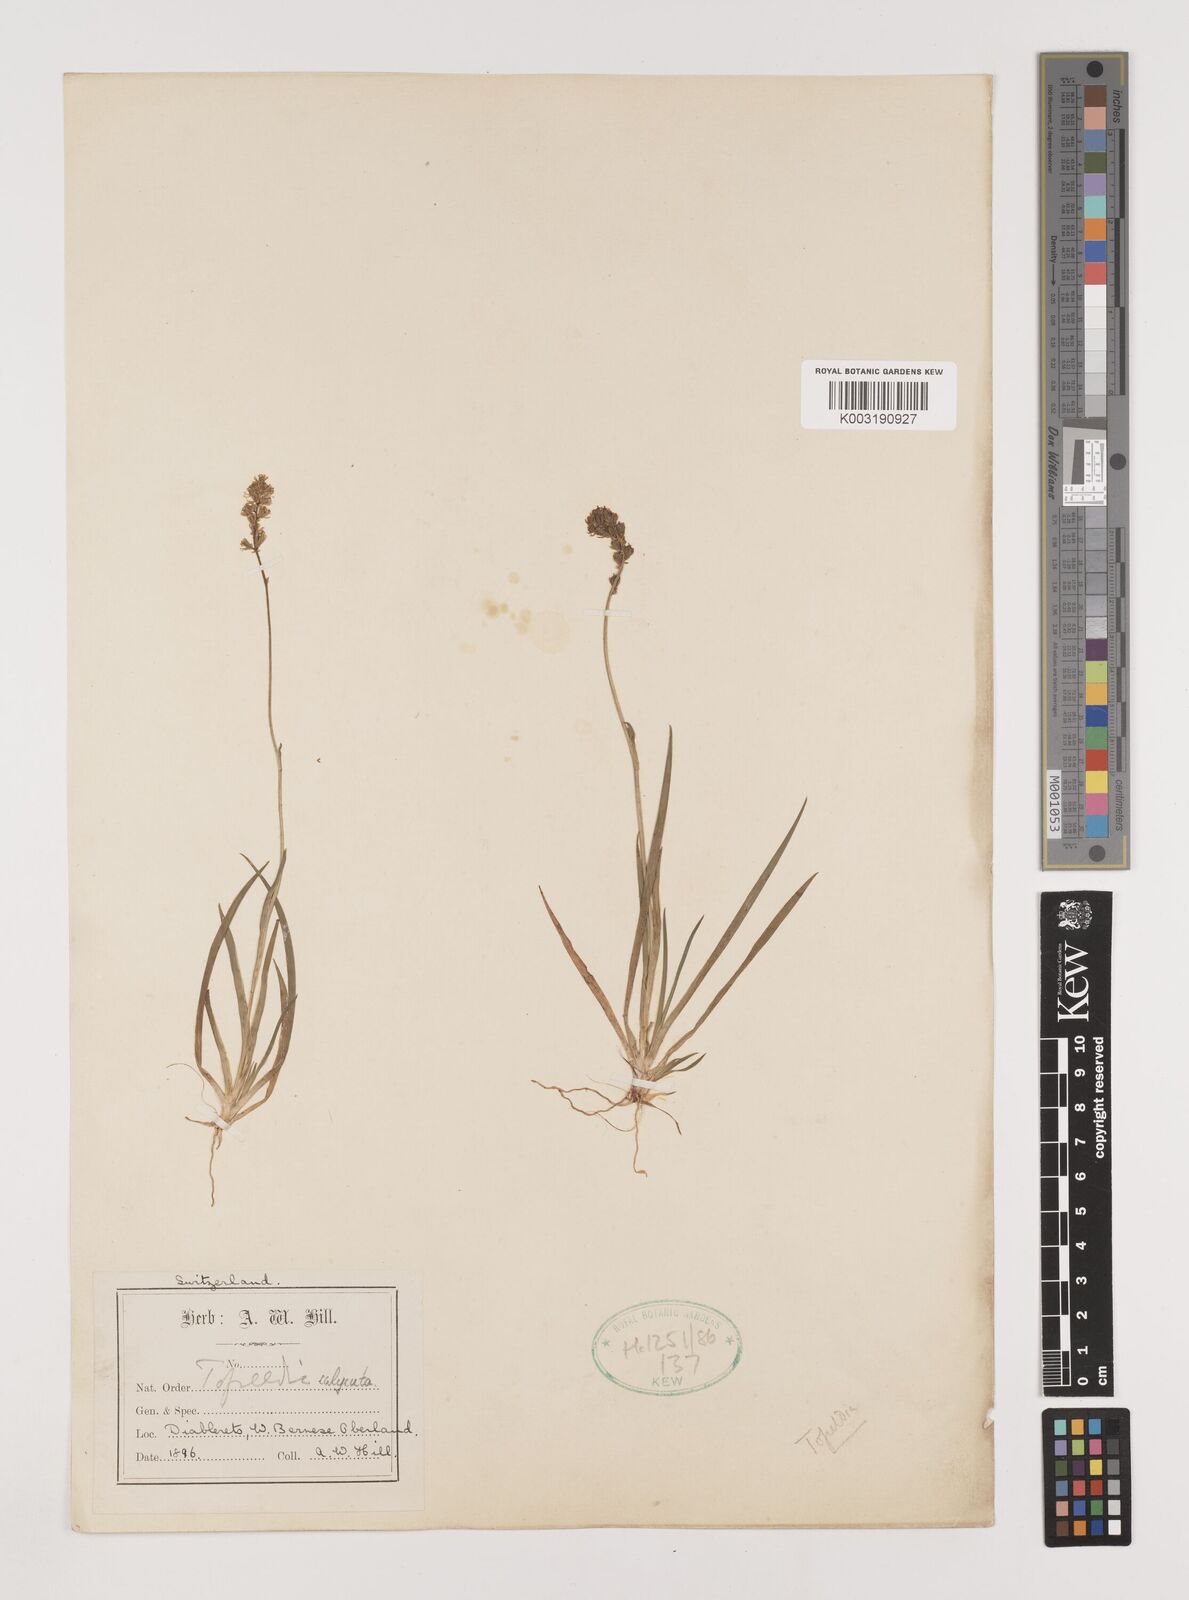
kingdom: Plantae
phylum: Tracheophyta
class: Liliopsida
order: Alismatales
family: Tofieldiaceae
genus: Tofieldia
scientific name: Tofieldia calyculata
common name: German-asphodel
